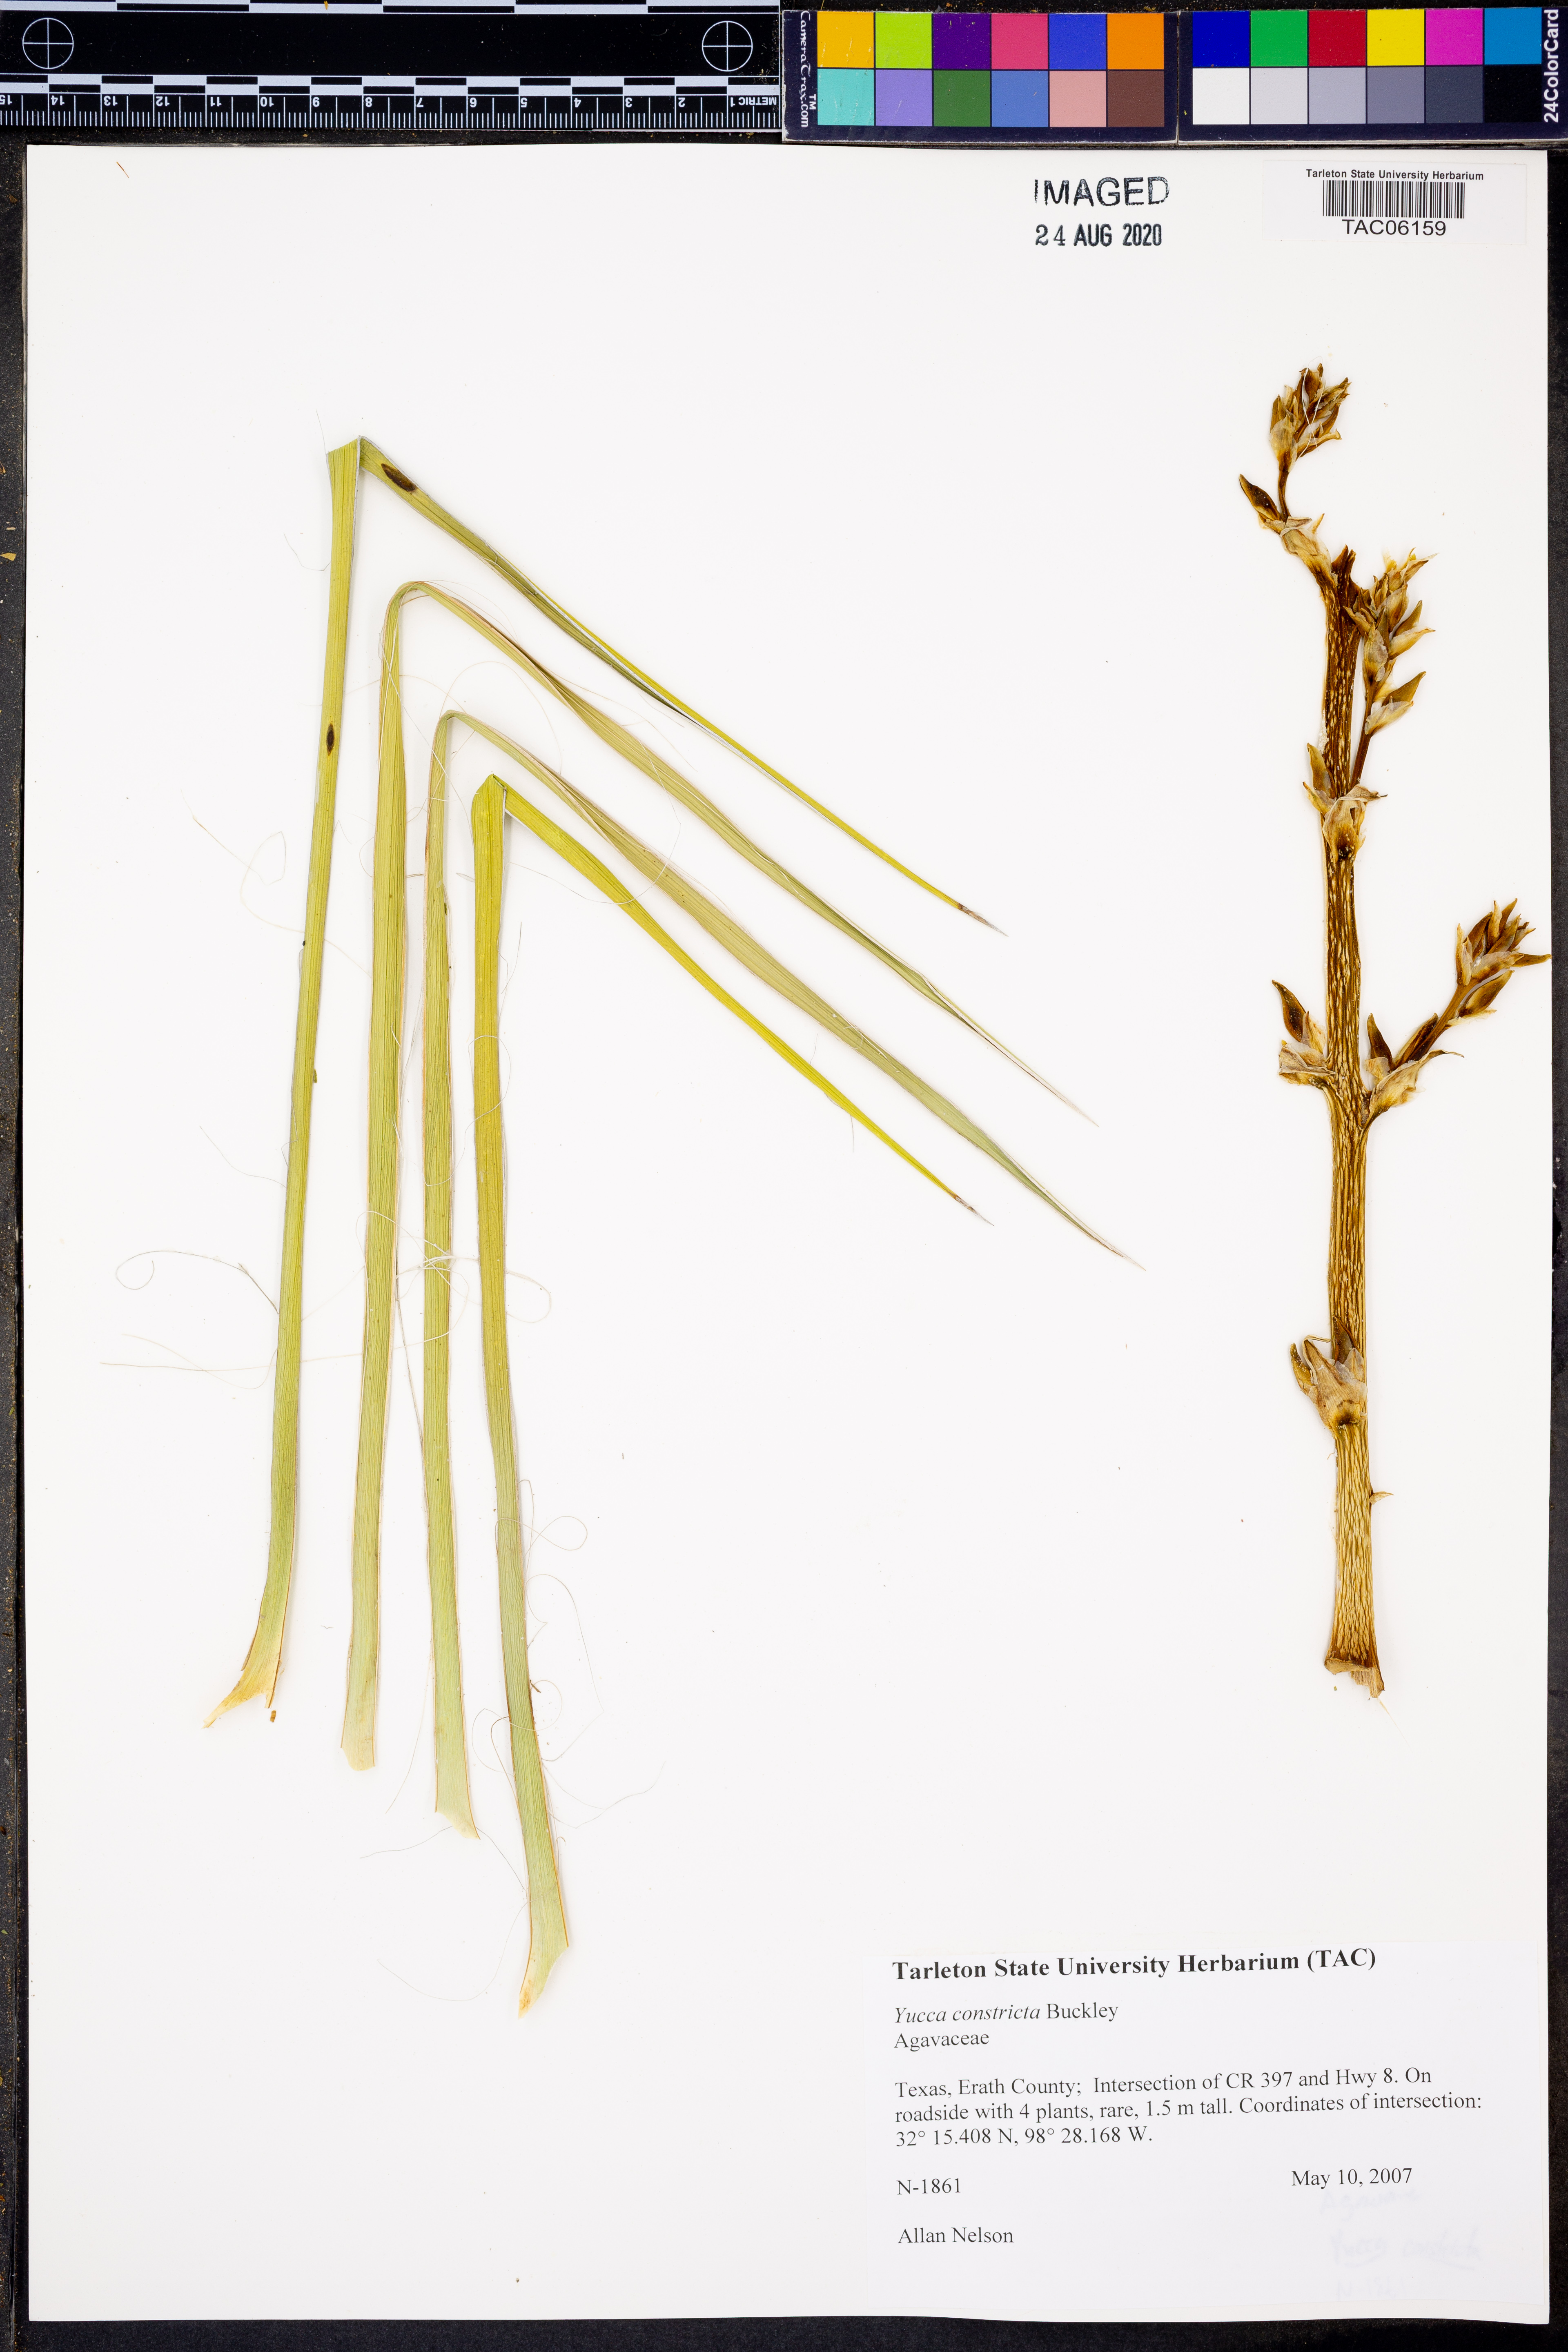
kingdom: Plantae
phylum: Tracheophyta
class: Liliopsida
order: Asparagales
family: Asparagaceae
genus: Yucca
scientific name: Yucca constricta
